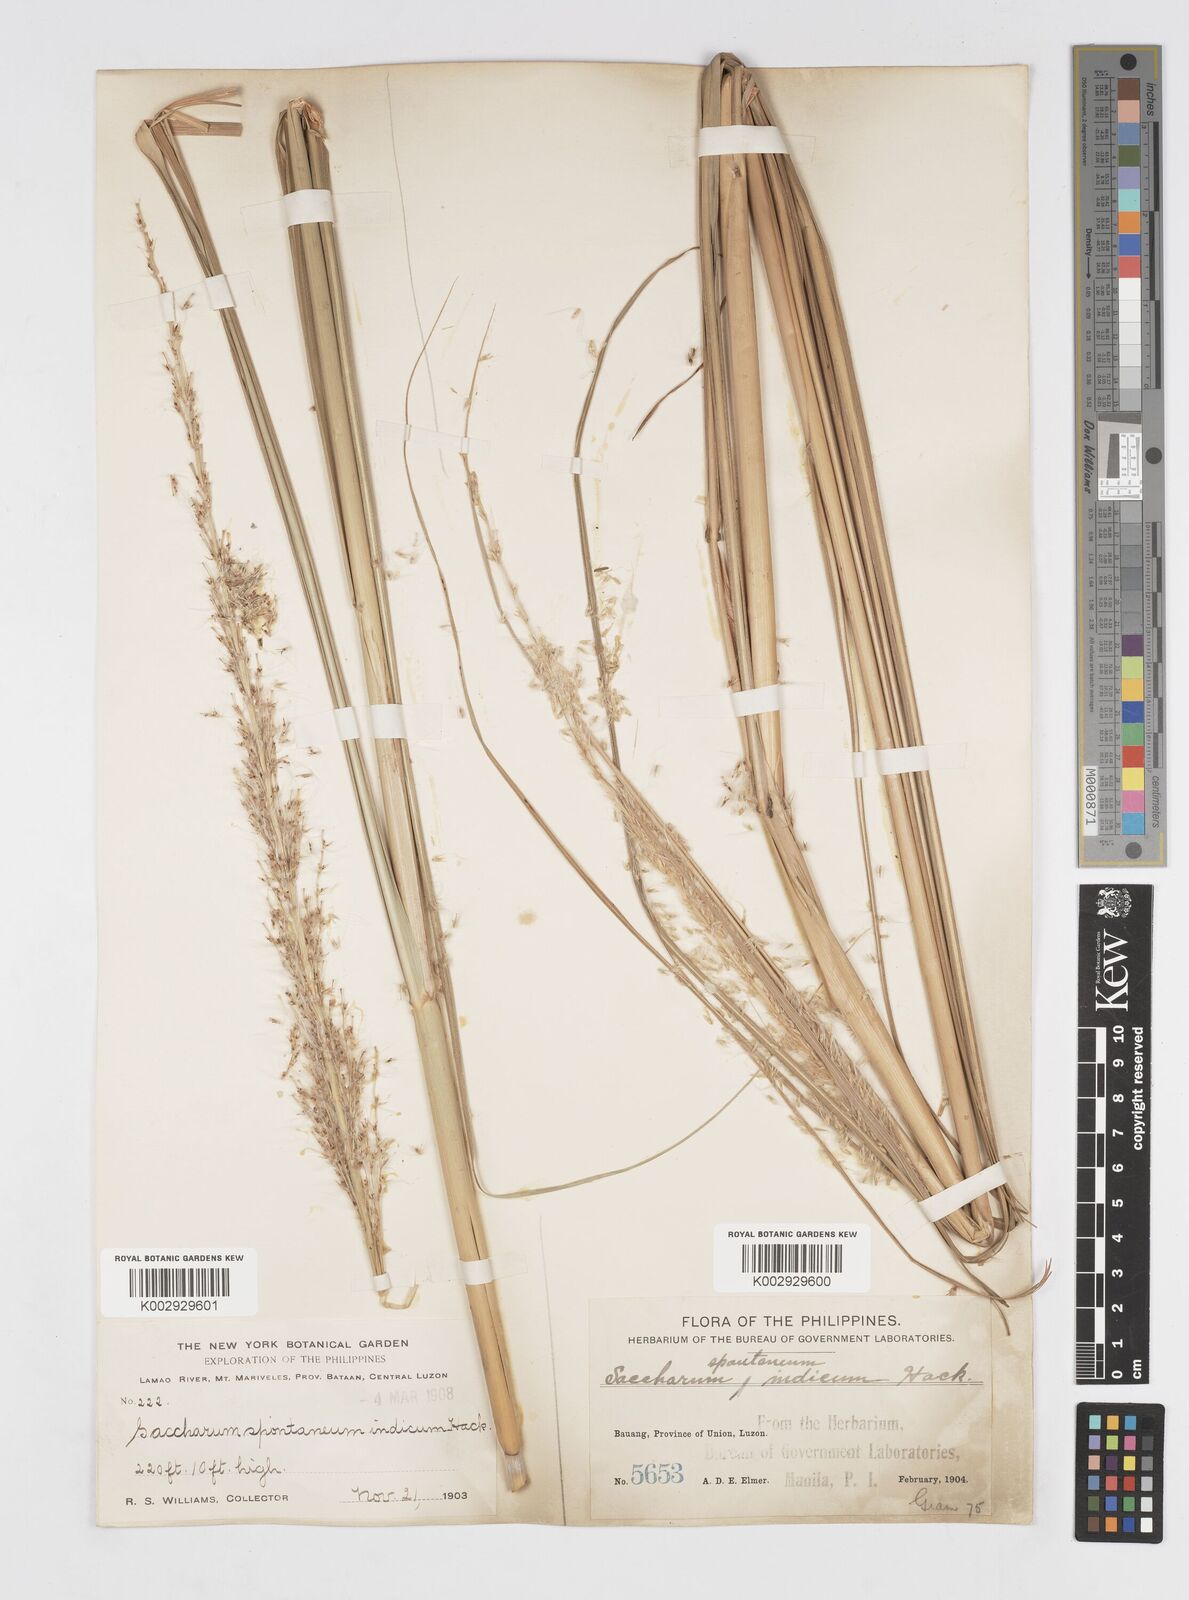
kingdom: Plantae
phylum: Tracheophyta
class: Liliopsida
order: Poales
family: Poaceae
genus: Saccharum
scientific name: Saccharum spontaneum
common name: Wild sugarcane
